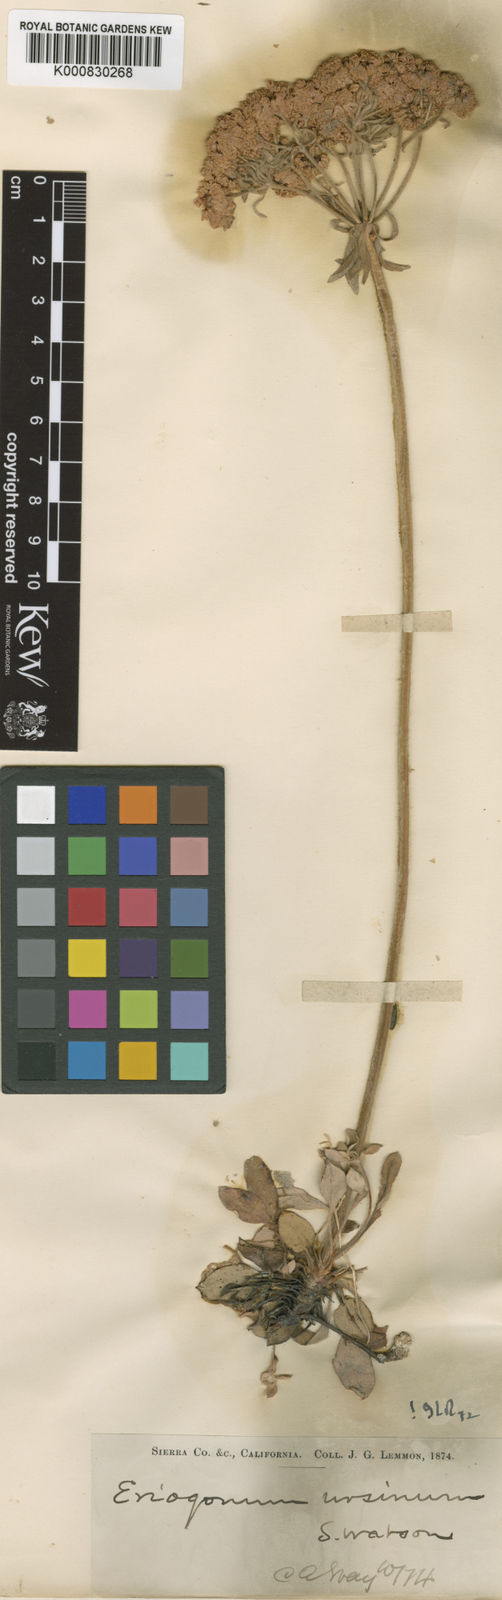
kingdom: Plantae
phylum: Tracheophyta
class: Magnoliopsida
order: Caryophyllales
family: Polygonaceae
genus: Eriogonum
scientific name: Eriogonum ursinum
